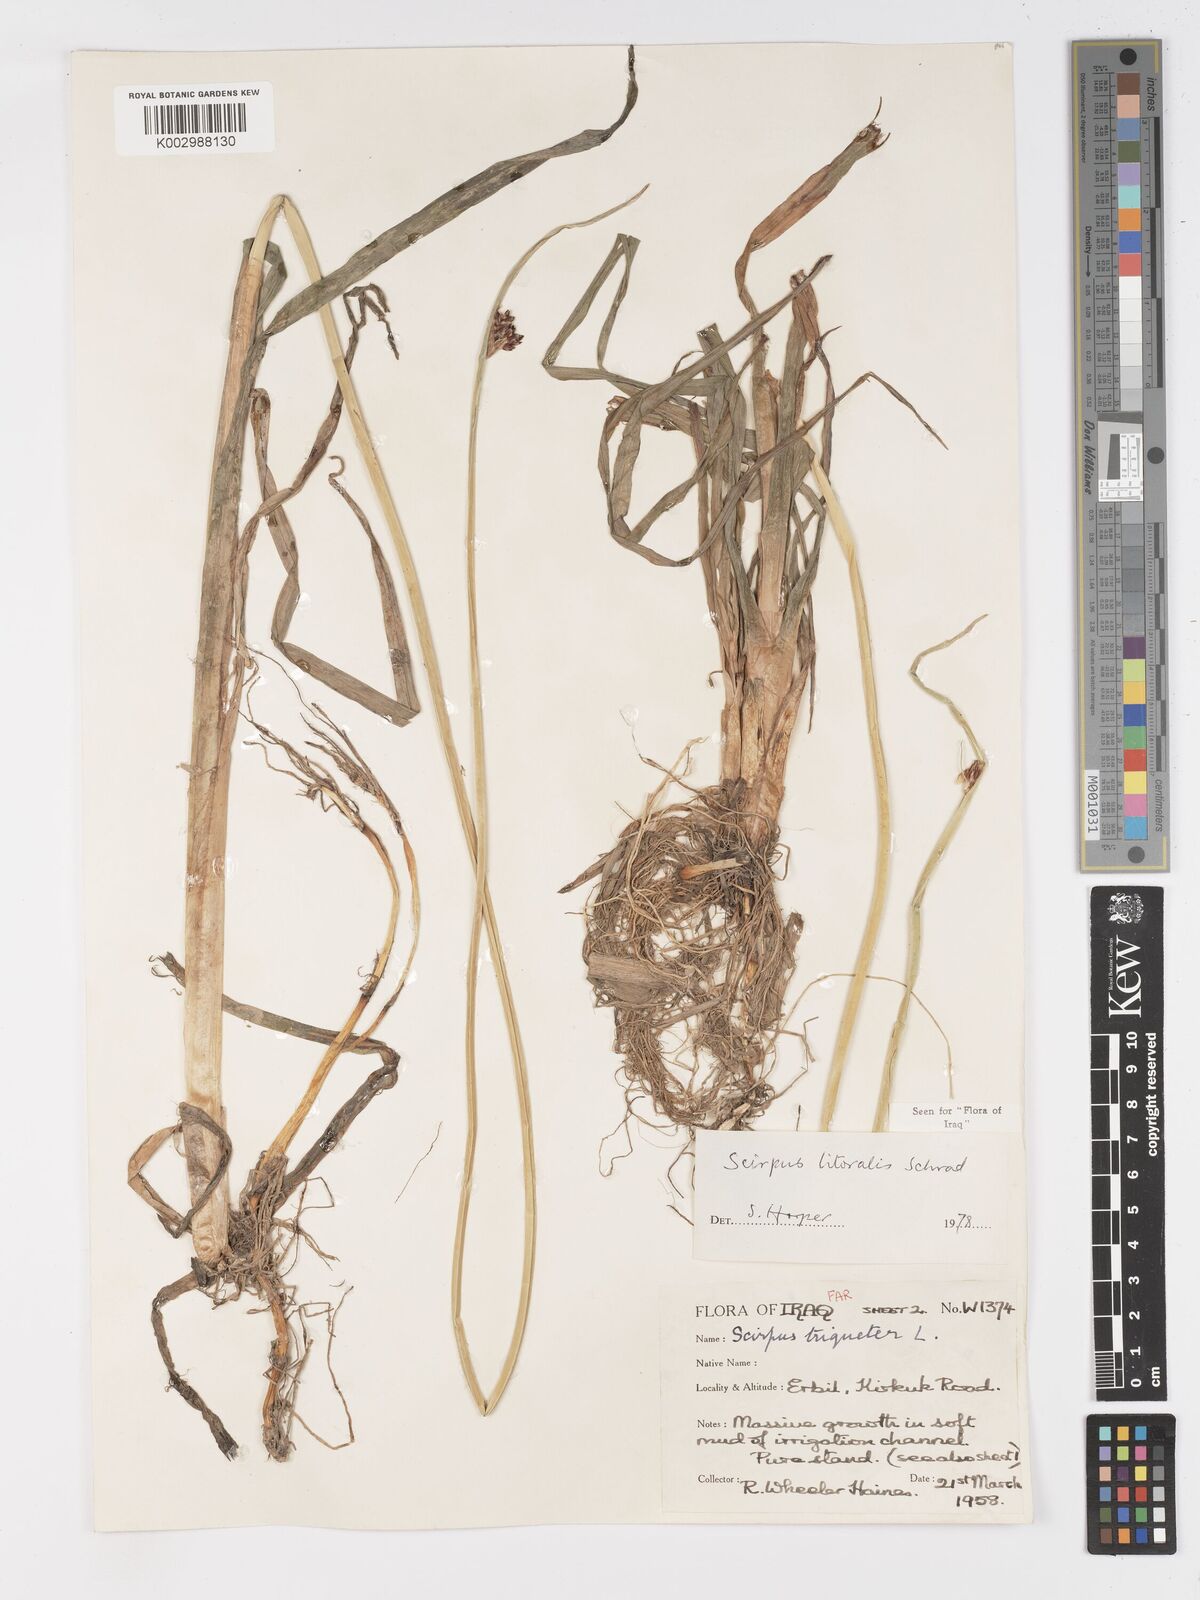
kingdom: Plantae
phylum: Tracheophyta
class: Liliopsida
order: Poales
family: Cyperaceae
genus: Schoenoplectus
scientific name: Schoenoplectus litoralis
